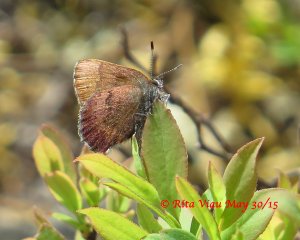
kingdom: Animalia
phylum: Arthropoda
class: Insecta
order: Lepidoptera
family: Lycaenidae
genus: Incisalia
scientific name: Incisalia irioides
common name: Brown Elfin
